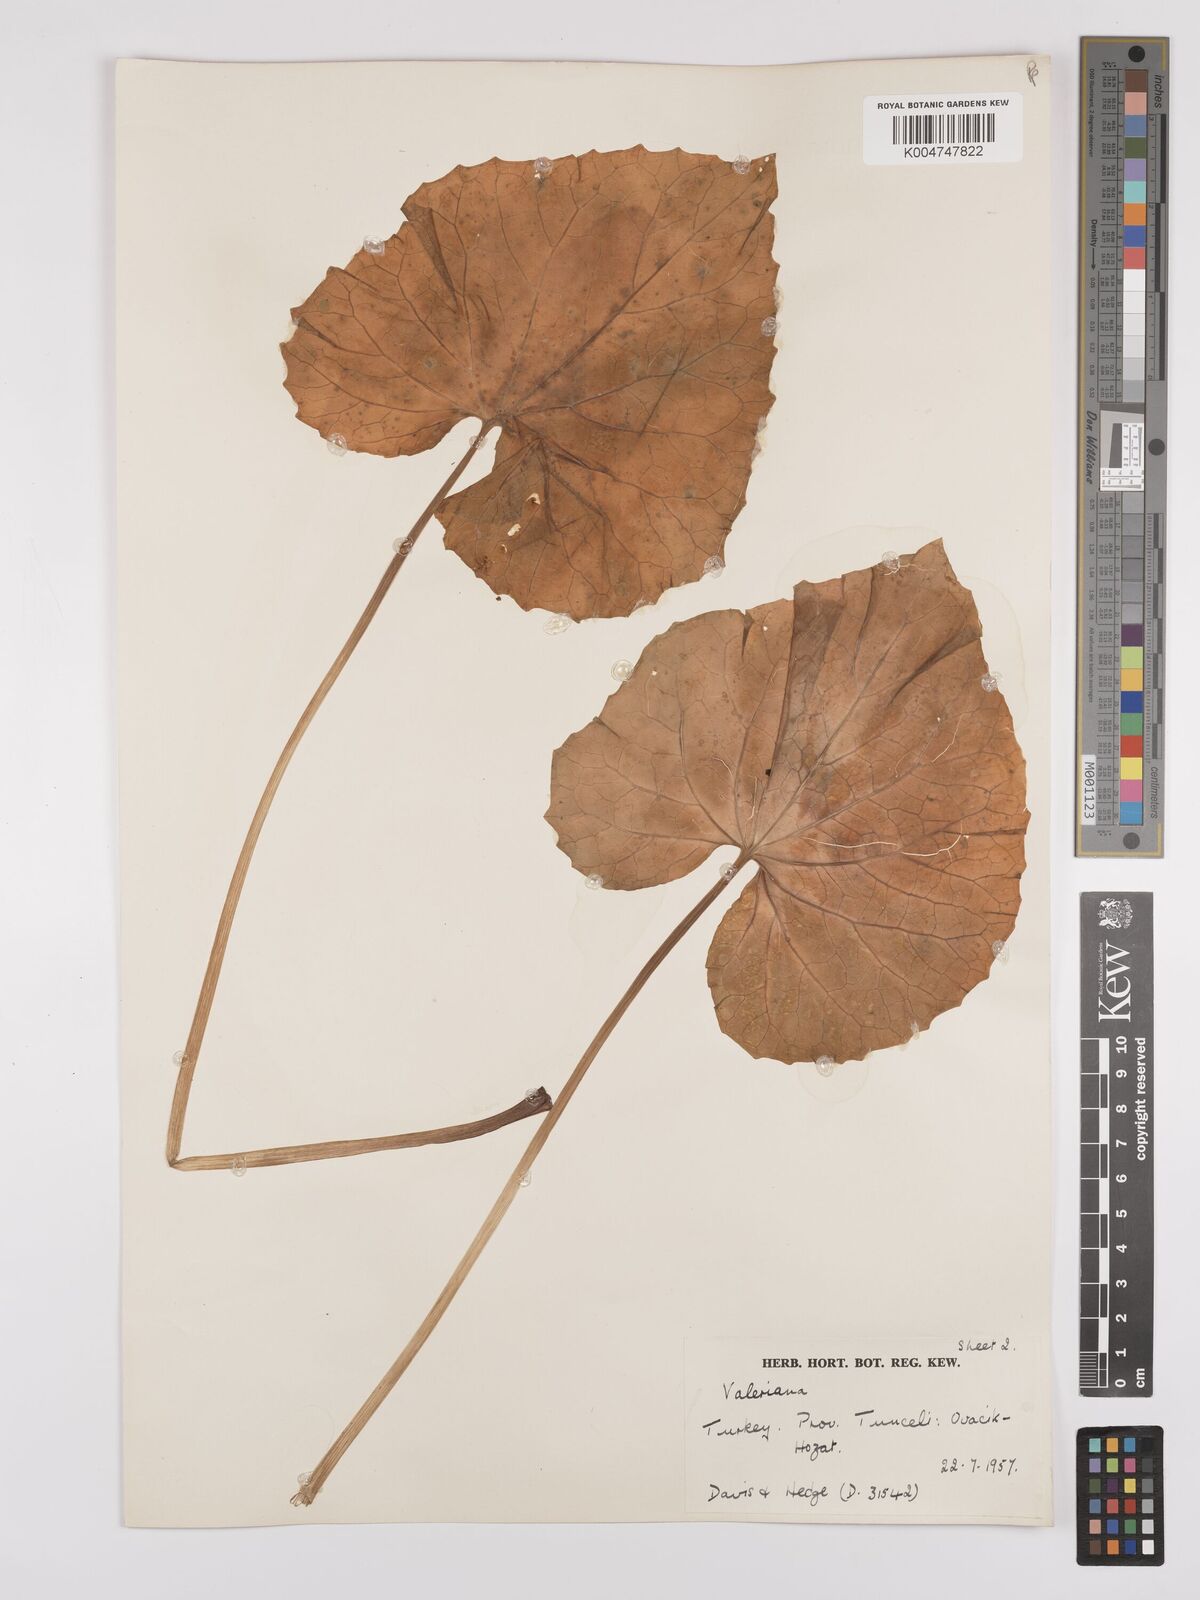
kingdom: Plantae
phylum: Tracheophyta
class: Magnoliopsida
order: Dipsacales
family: Caprifoliaceae
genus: Valeriana
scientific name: Valeriana
